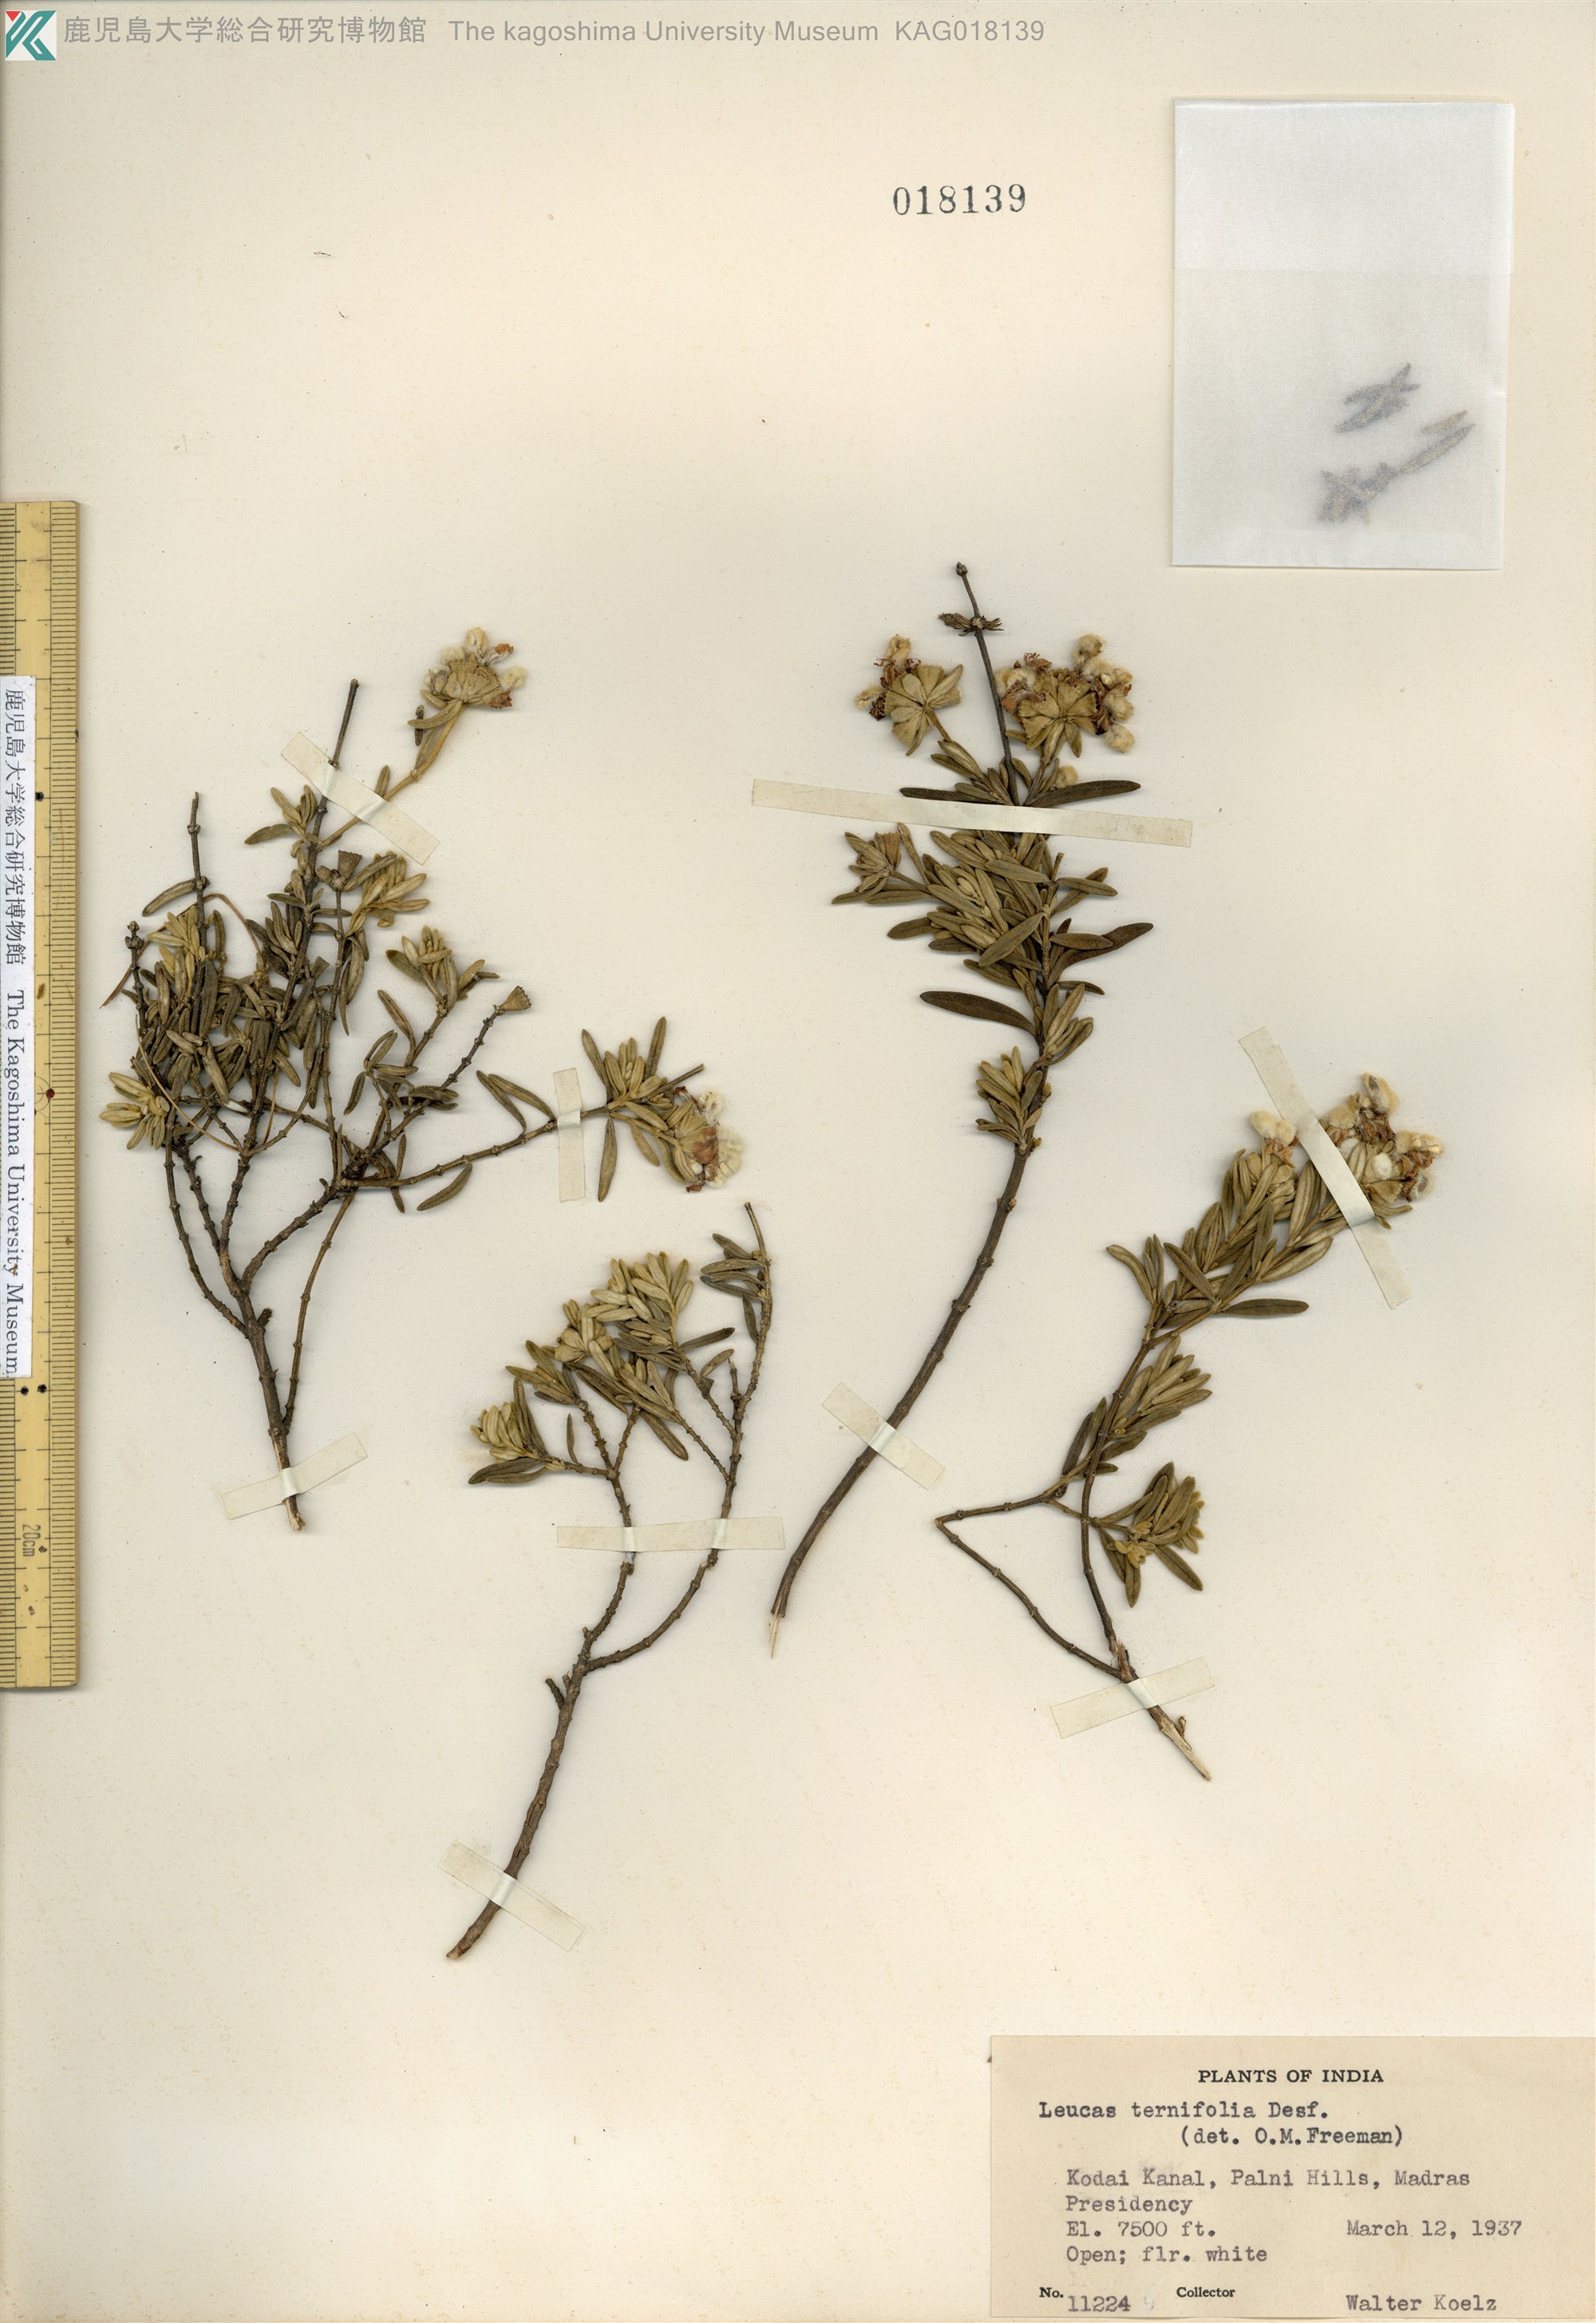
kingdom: Plantae
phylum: Tracheophyta
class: Magnoliopsida
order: Lamiales
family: Lamiaceae
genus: Leucas
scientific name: Leucas helianthemifolia
